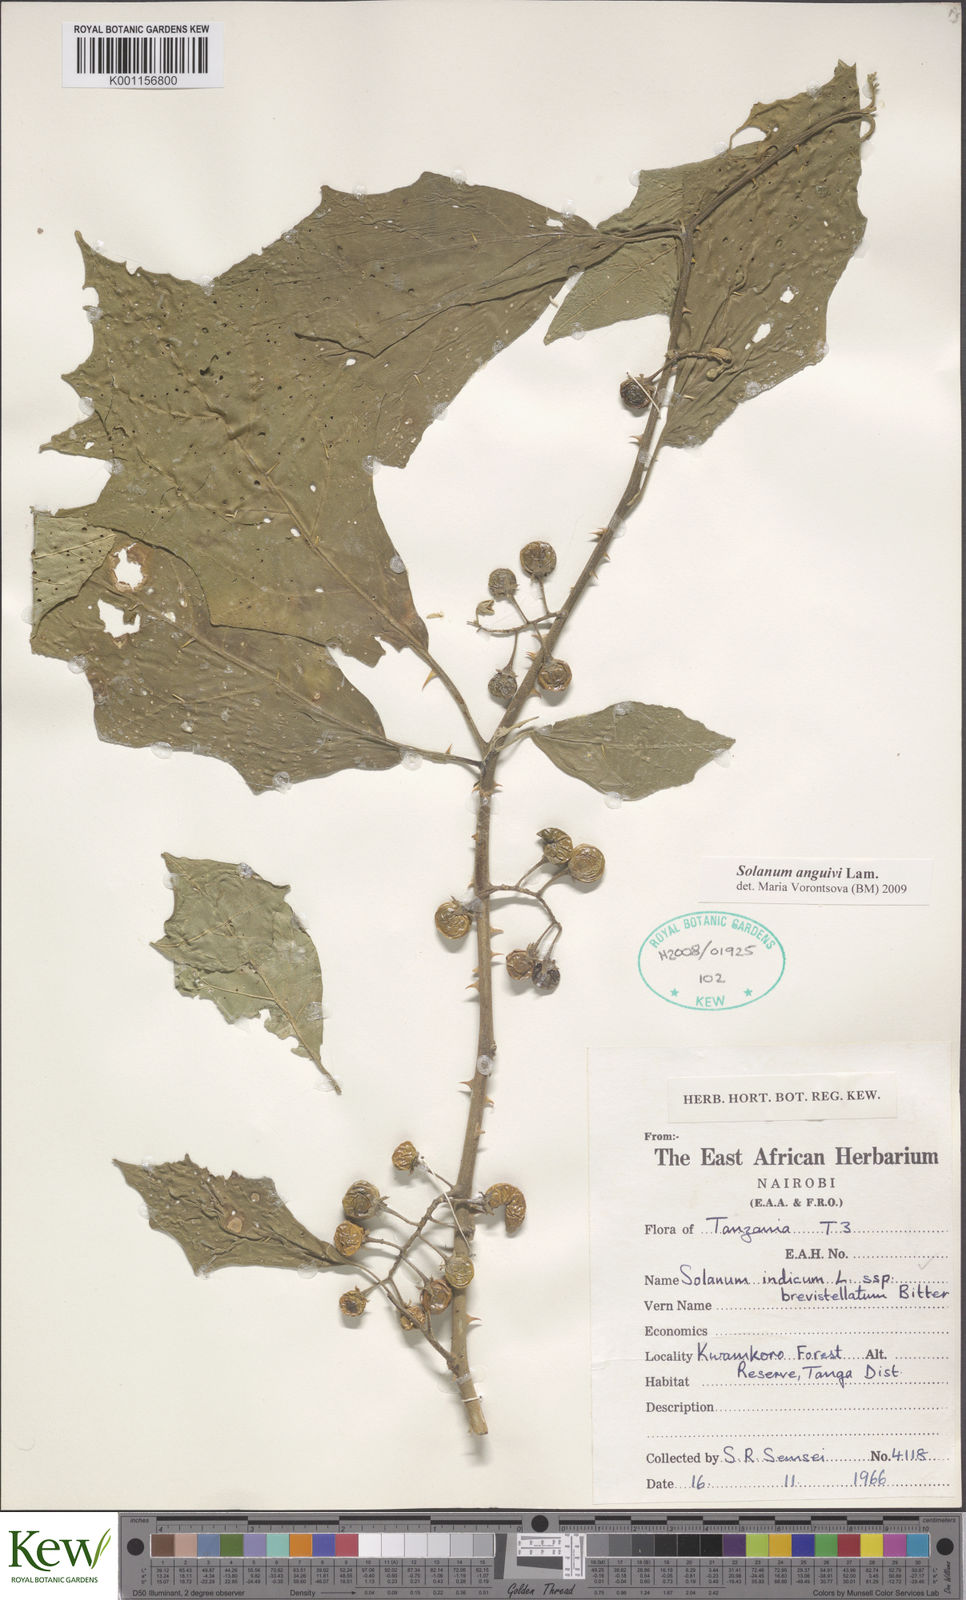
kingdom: Plantae
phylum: Tracheophyta
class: Magnoliopsida
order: Solanales
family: Solanaceae
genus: Solanum
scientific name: Solanum anguivi
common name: Forest bitterberry
